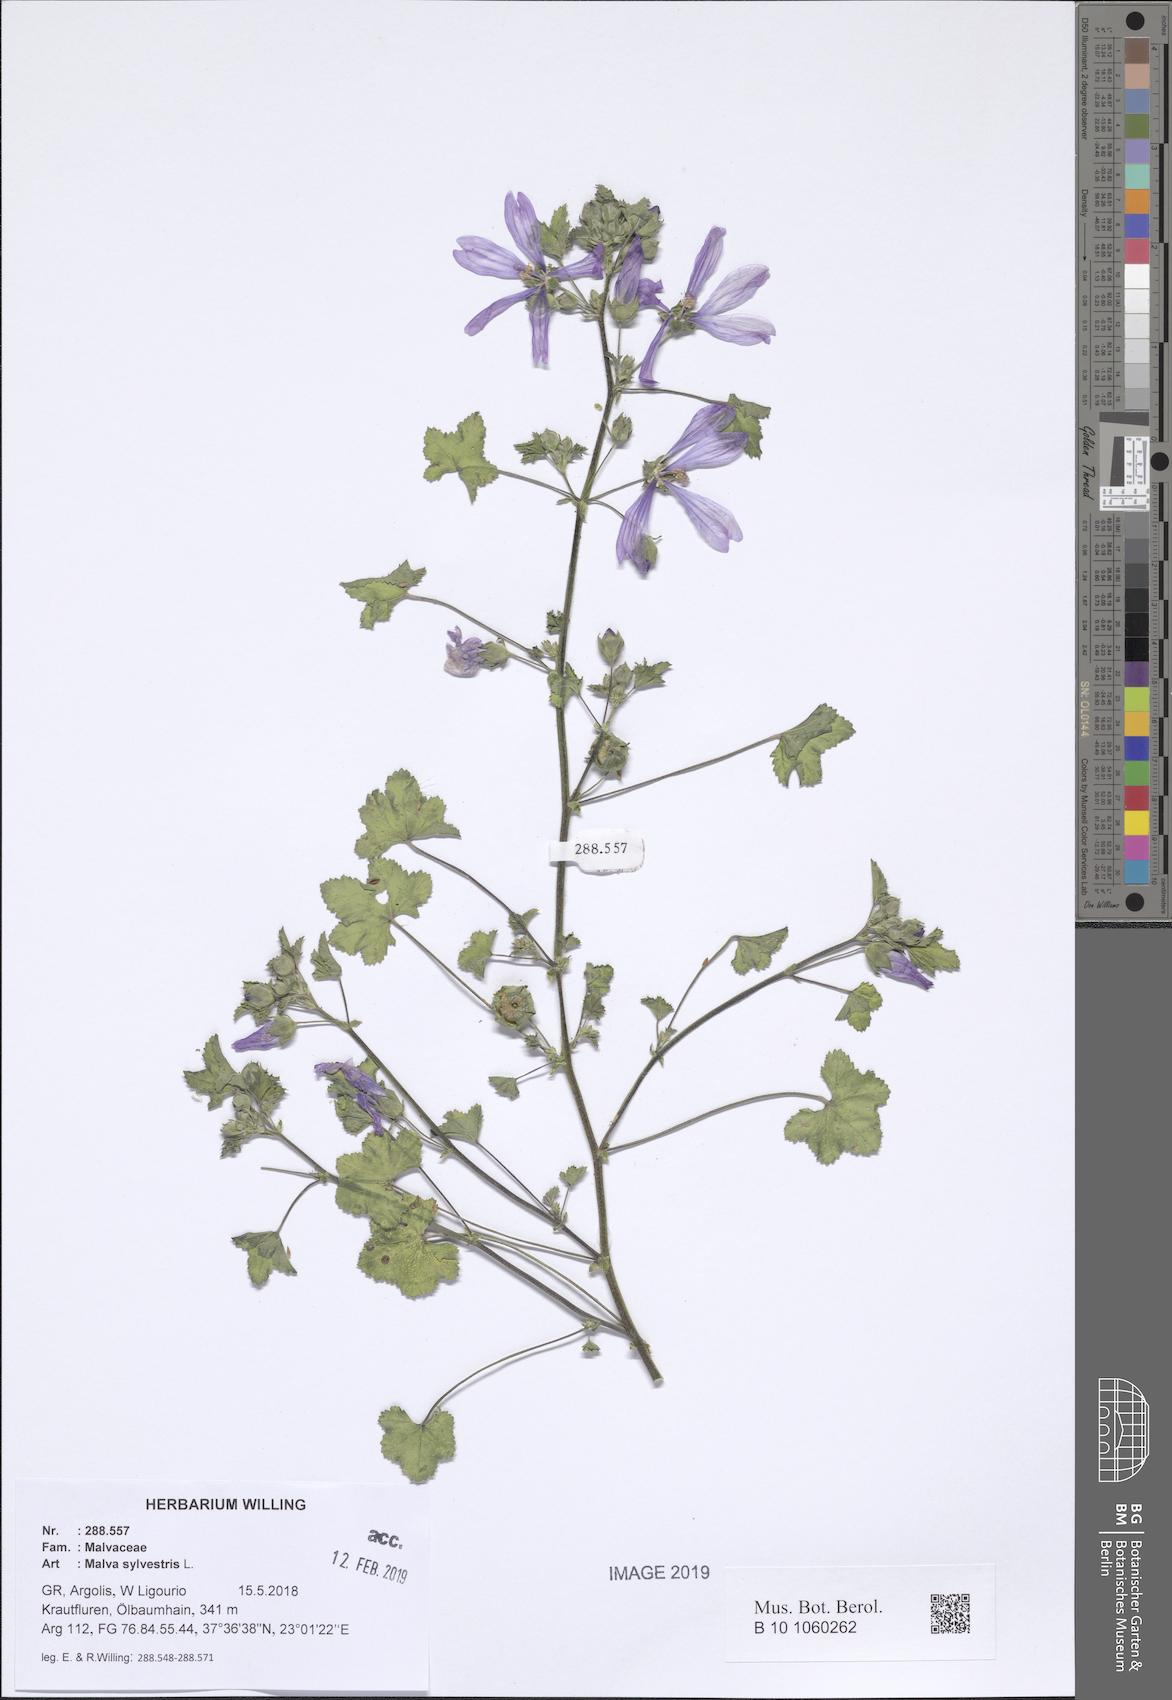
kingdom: Plantae
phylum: Tracheophyta
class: Magnoliopsida
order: Malvales
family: Malvaceae
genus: Malva
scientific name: Malva sylvestris
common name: Common mallow
